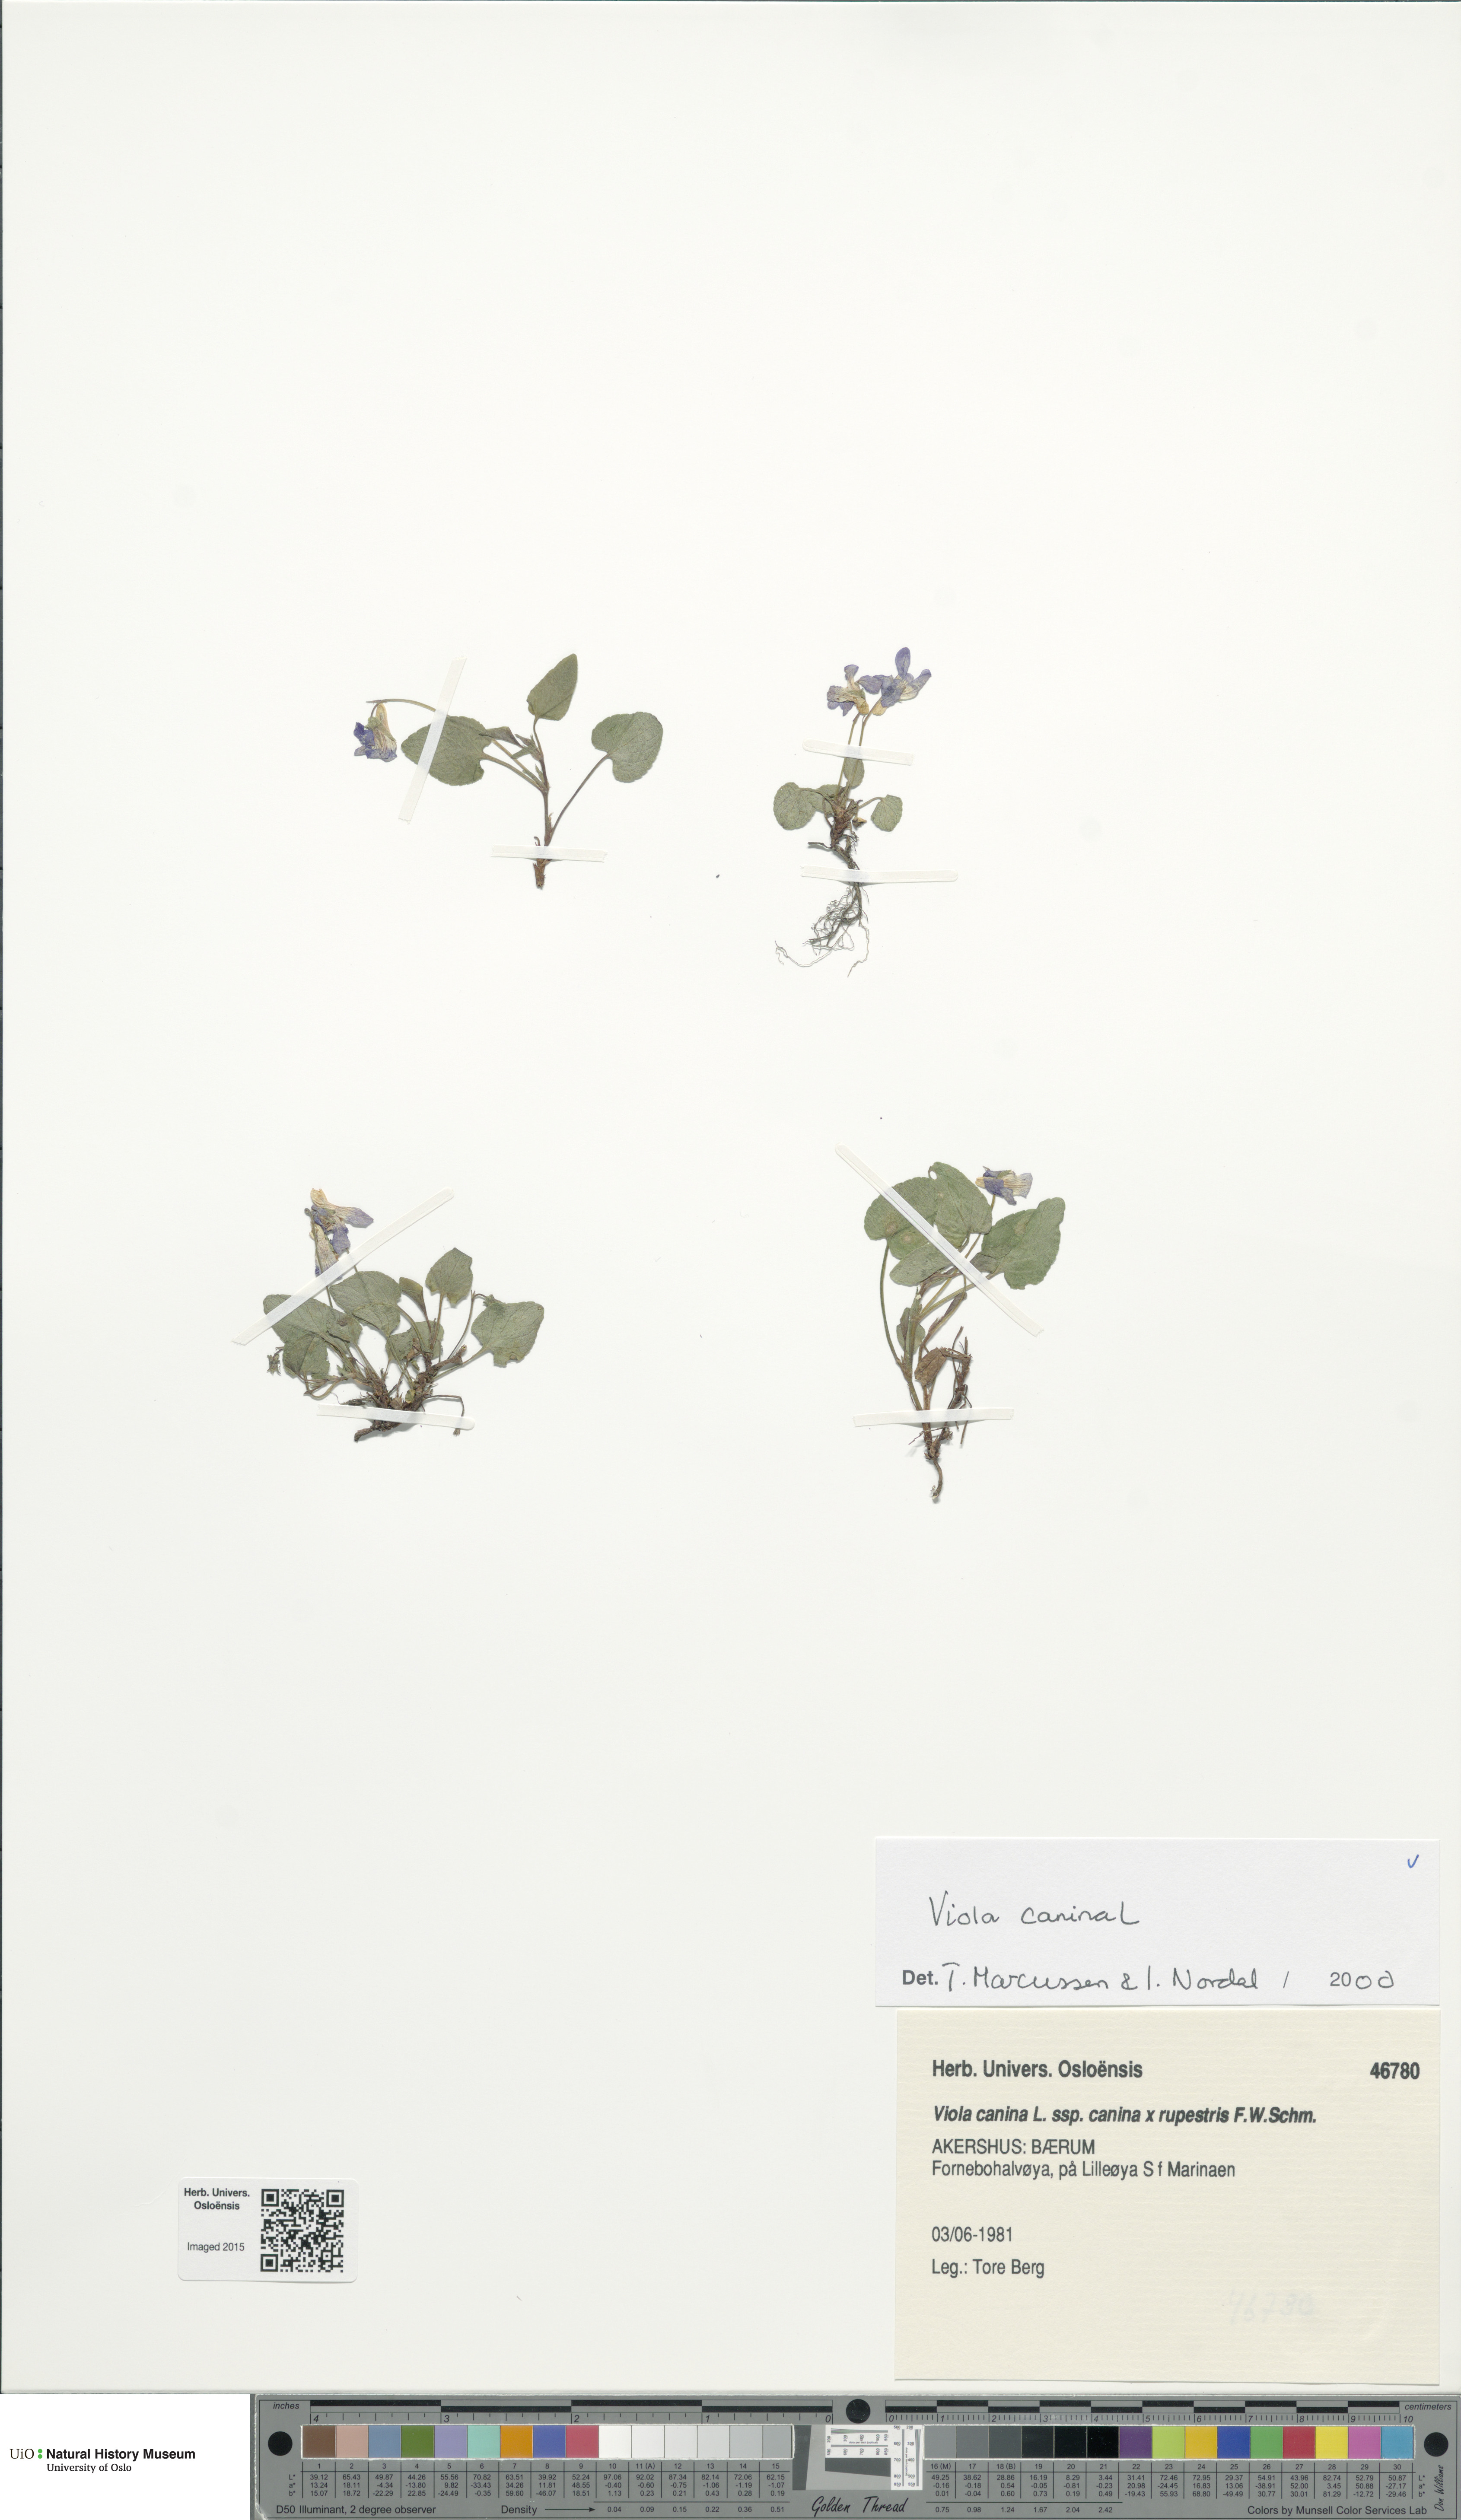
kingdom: Plantae
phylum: Tracheophyta
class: Magnoliopsida
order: Malpighiales
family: Violaceae
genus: Viola
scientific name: Viola canina
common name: Heath dog-violet
